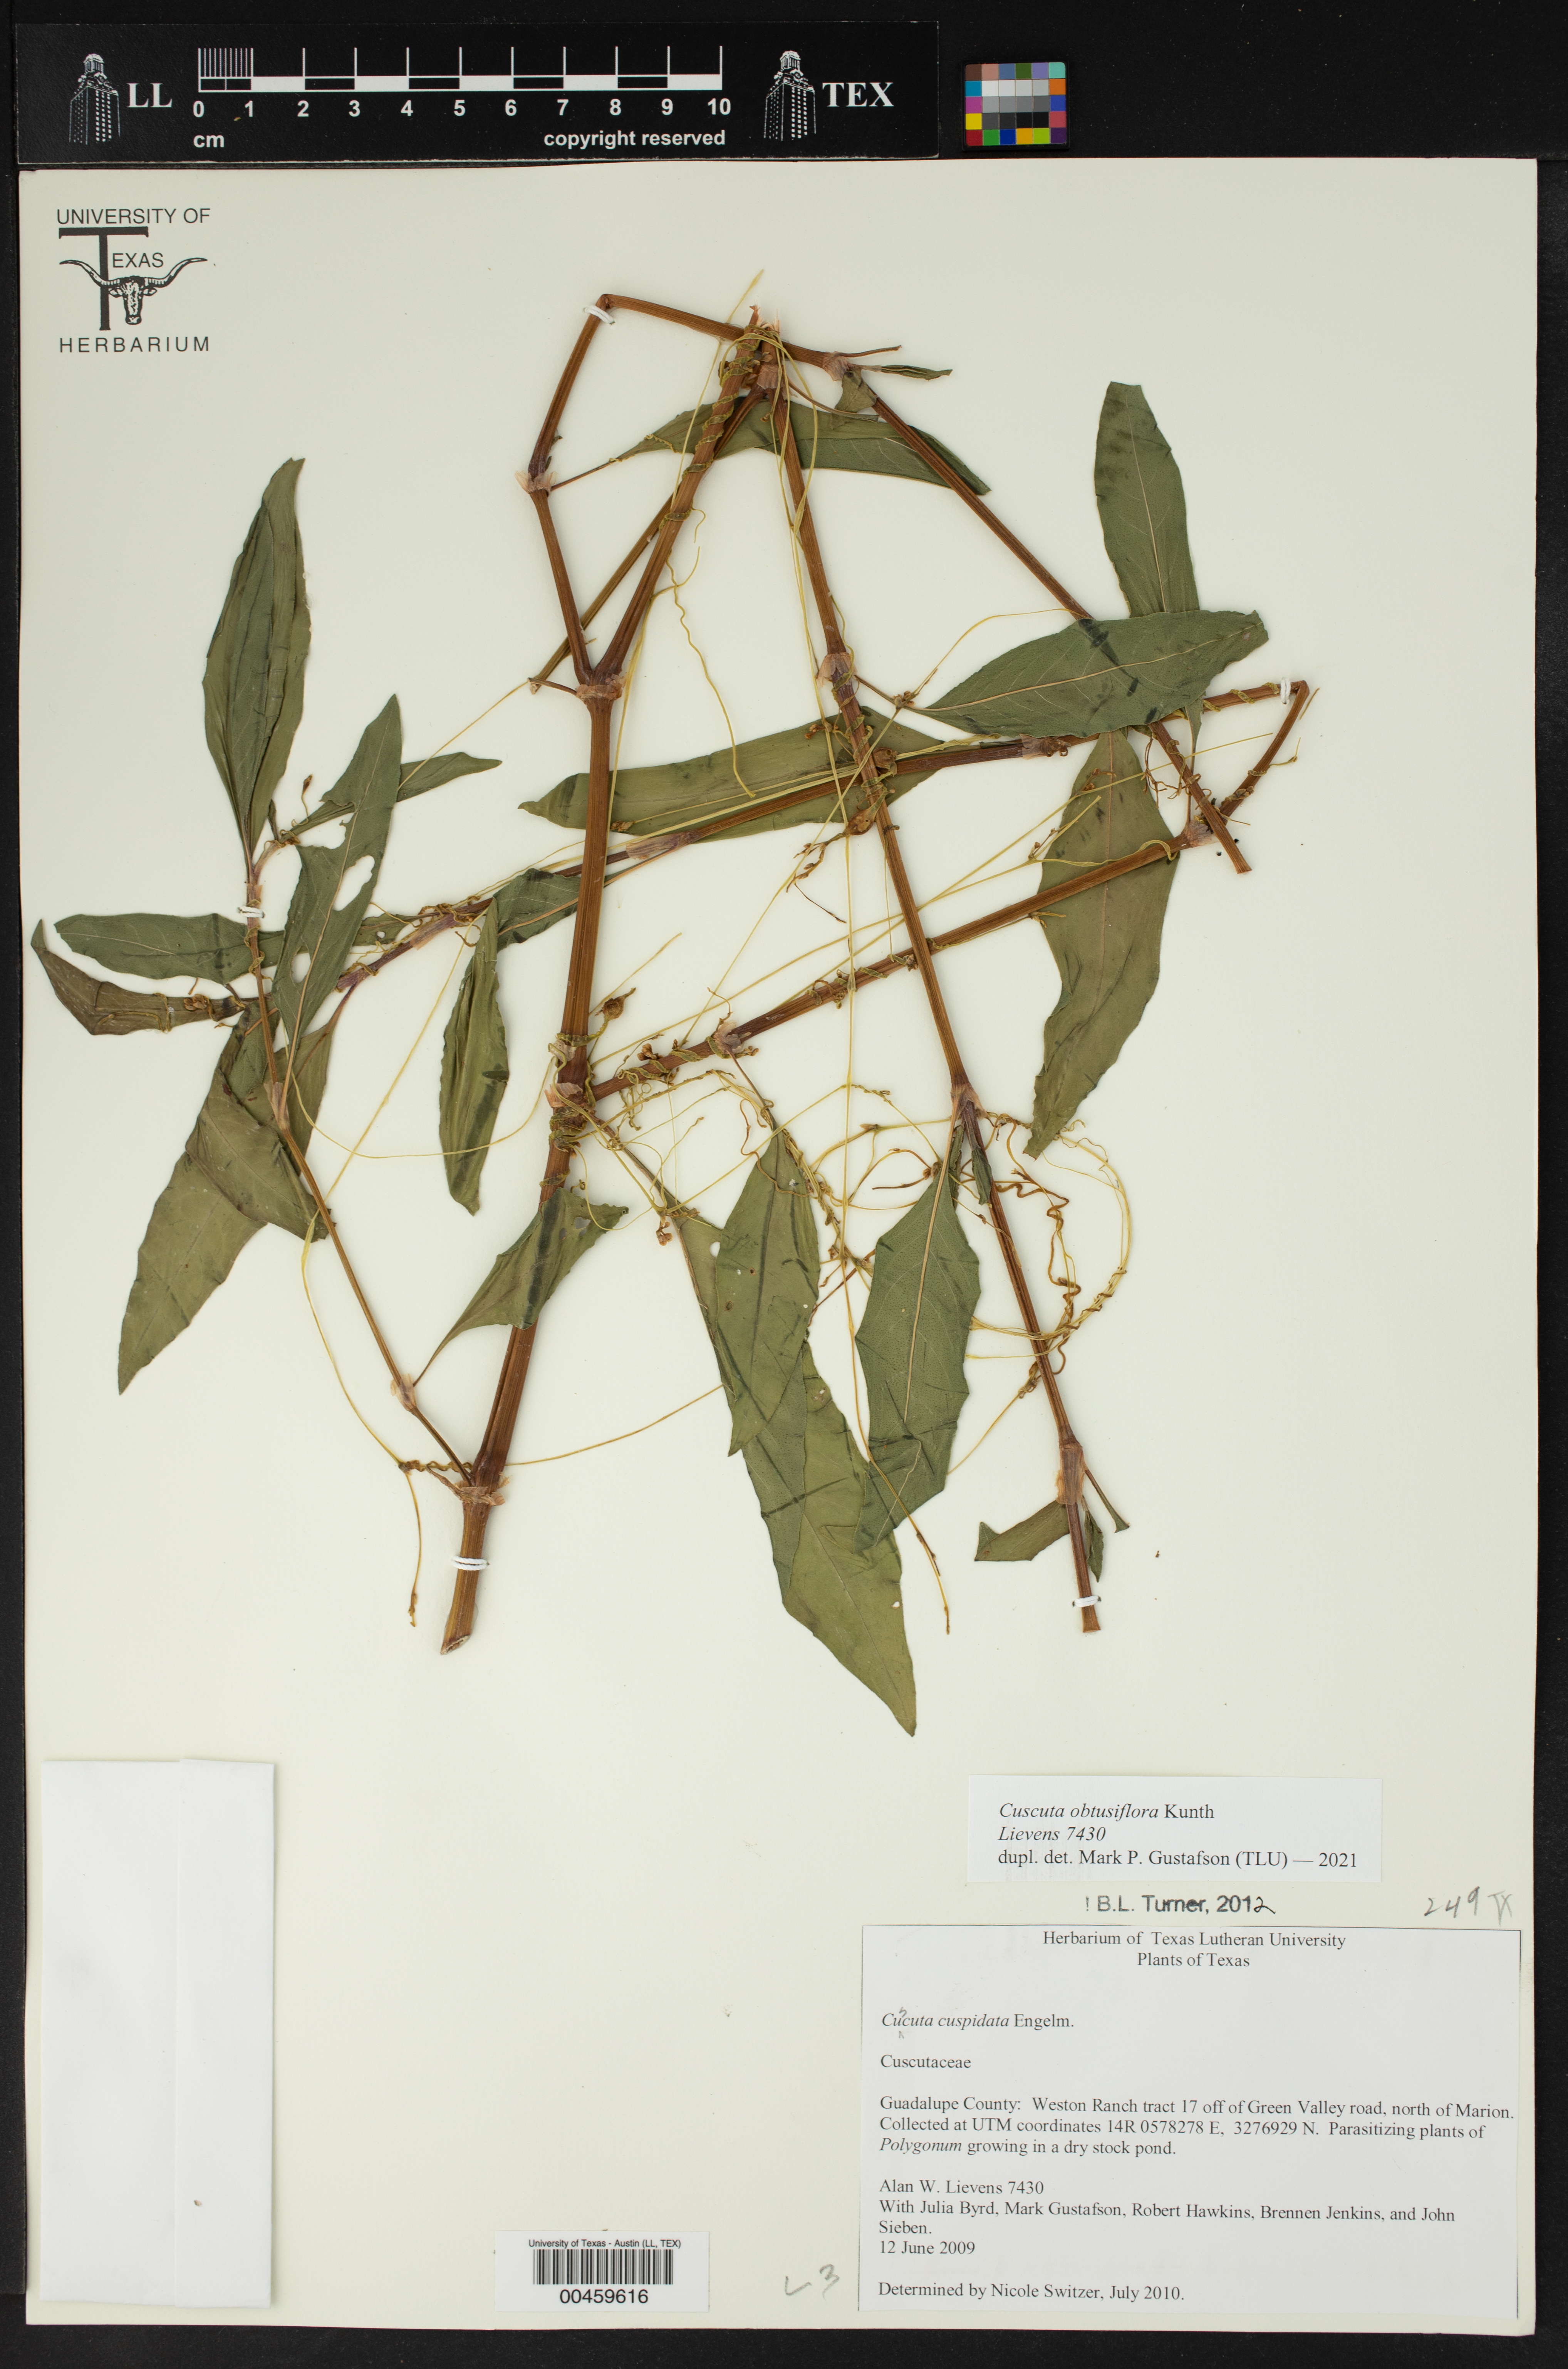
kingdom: Plantae
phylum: Tracheophyta
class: Magnoliopsida
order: Solanales
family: Convolvulaceae
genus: Cuscuta
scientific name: Cuscuta obtusiflora
